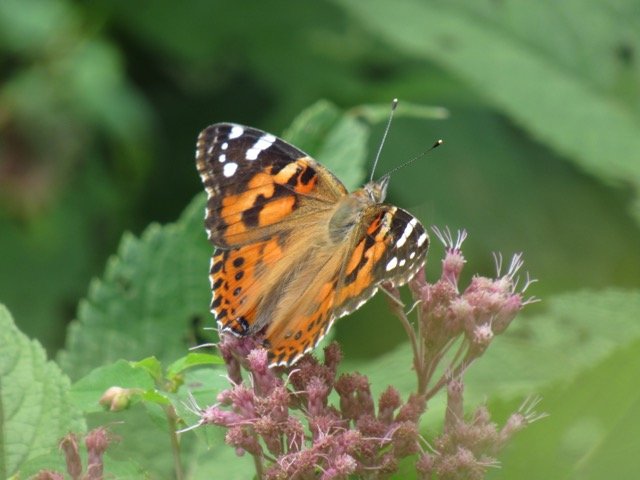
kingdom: Animalia
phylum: Arthropoda
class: Insecta
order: Lepidoptera
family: Nymphalidae
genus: Vanessa
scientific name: Vanessa cardui
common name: Painted Lady
